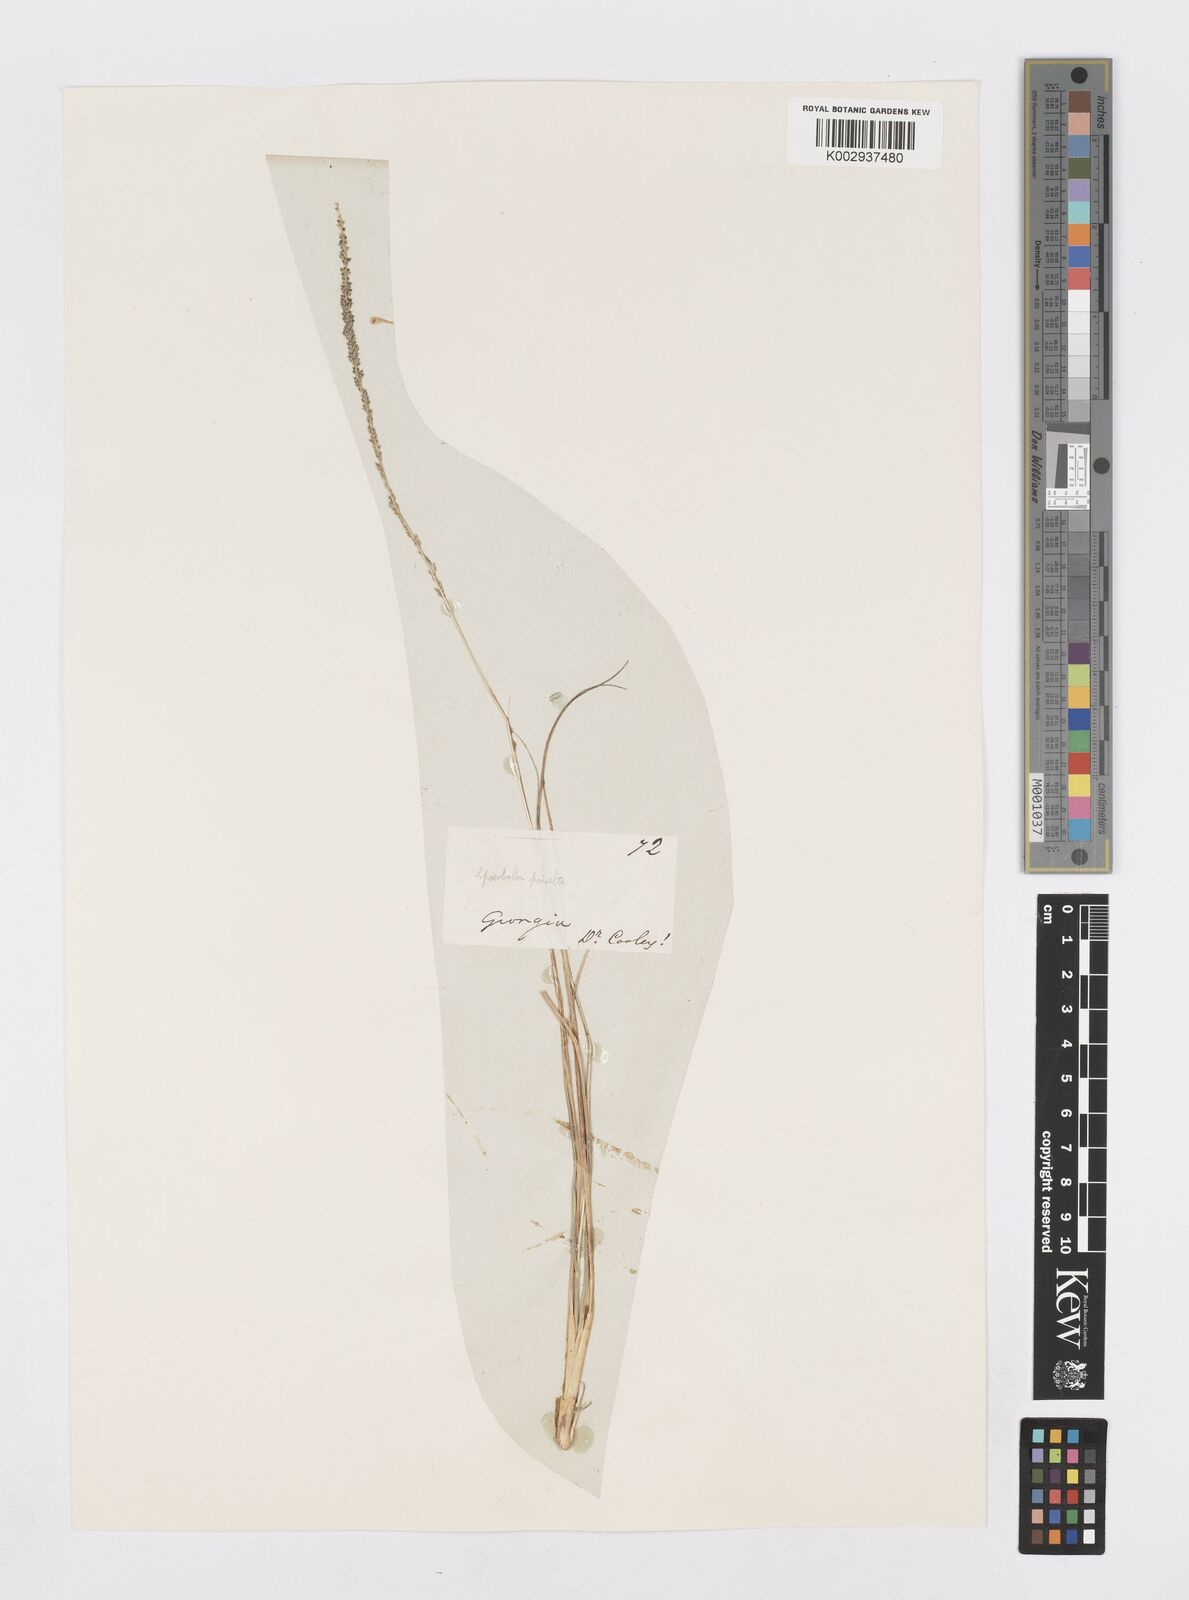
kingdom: Plantae
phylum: Tracheophyta
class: Liliopsida
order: Poales
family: Poaceae
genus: Sporobolus
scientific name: Sporobolus junceus
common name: Lizard grass
